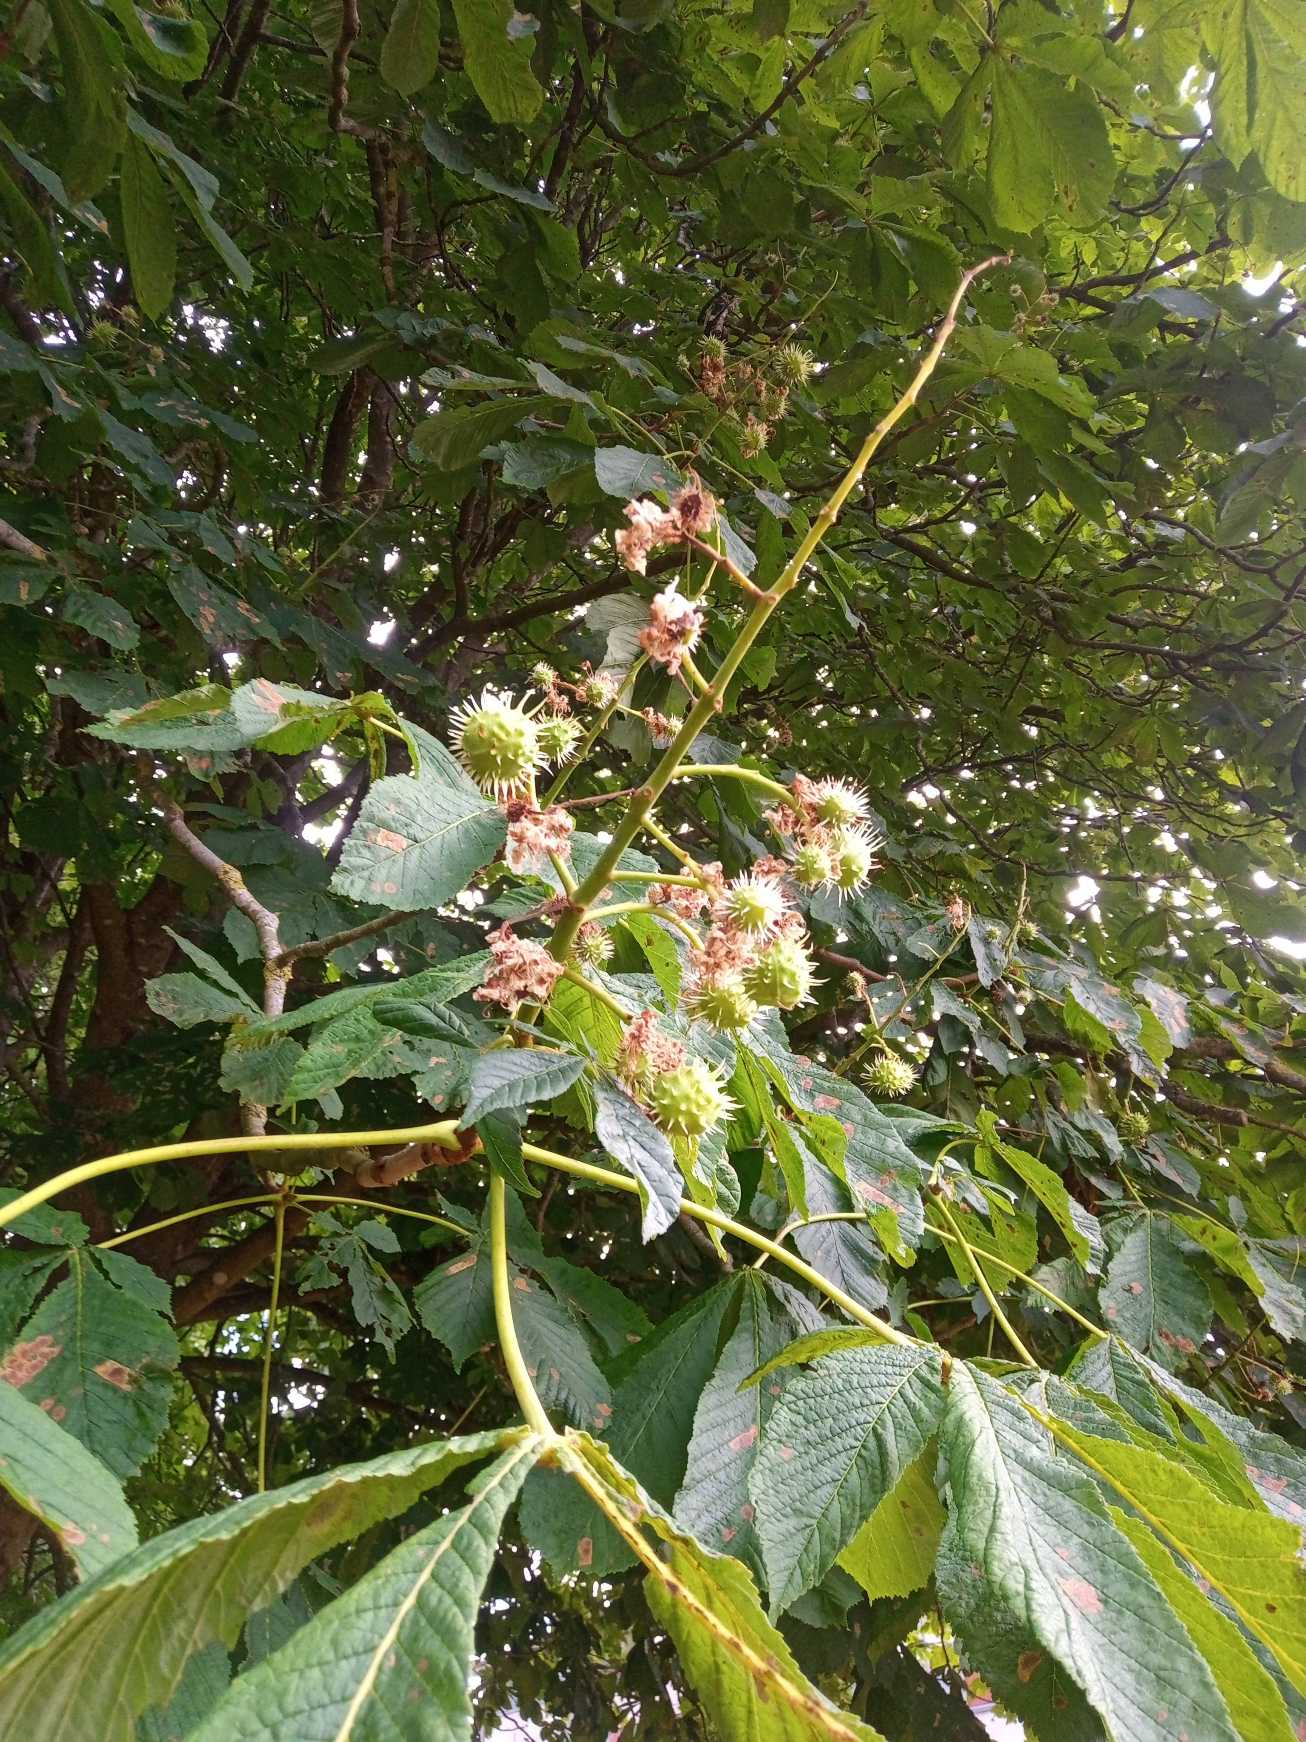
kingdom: Plantae
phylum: Tracheophyta
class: Magnoliopsida
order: Sapindales
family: Sapindaceae
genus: Aesculus
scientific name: Aesculus hippocastanum
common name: Hestekastanie
